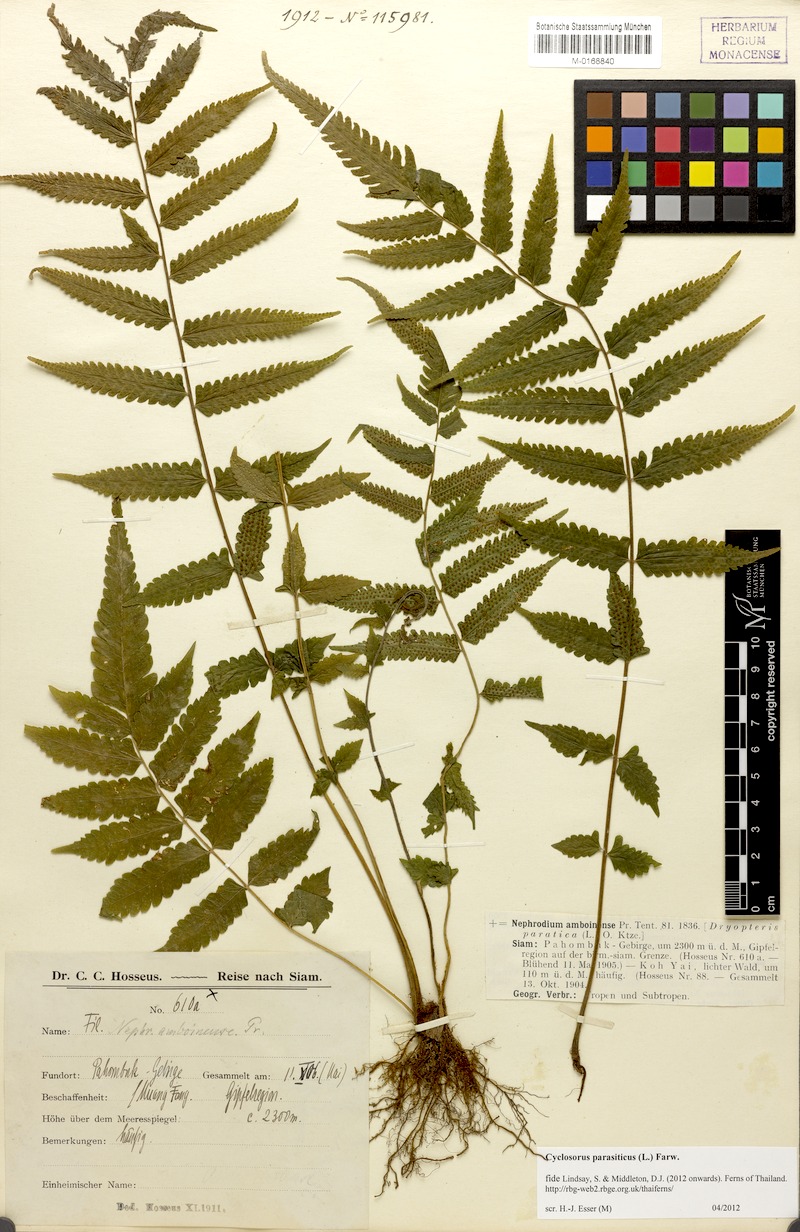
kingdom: Plantae
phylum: Tracheophyta
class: Polypodiopsida
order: Polypodiales
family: Thelypteridaceae
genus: Christella
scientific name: Christella parasitica
